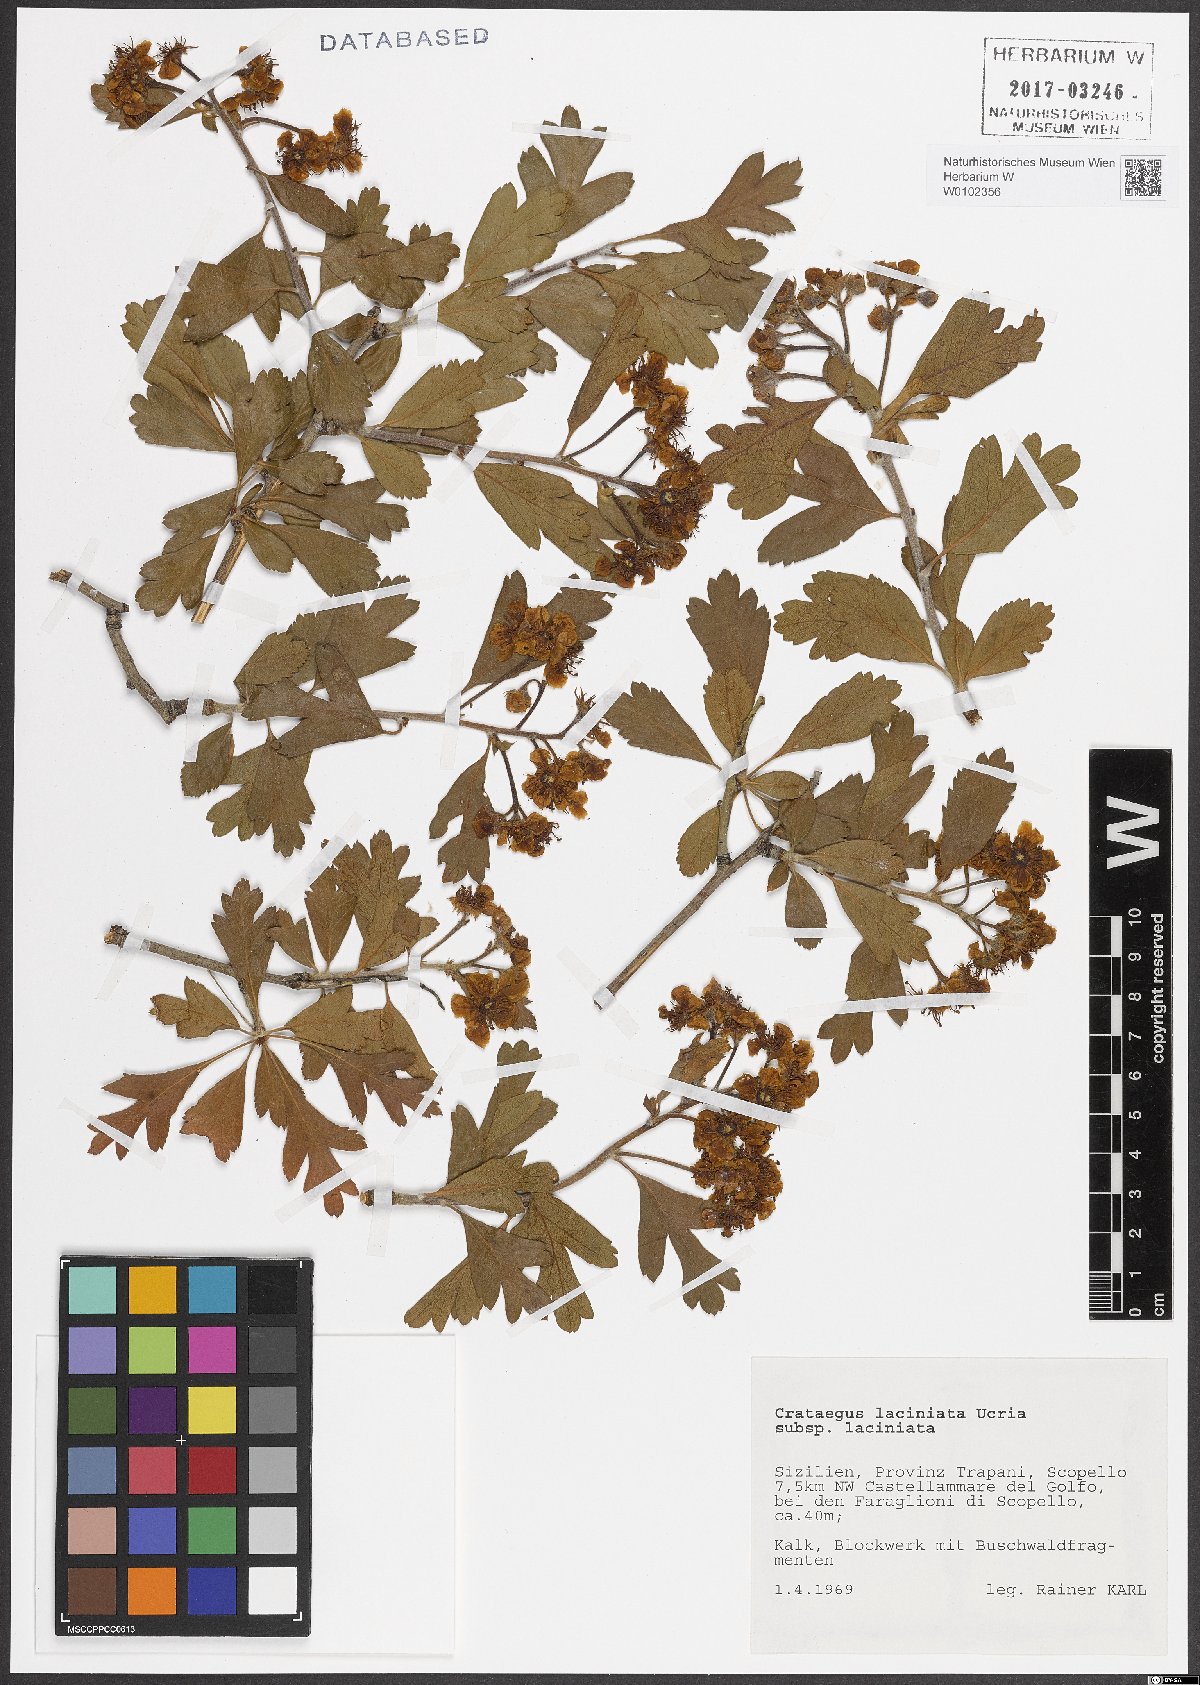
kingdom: Plantae
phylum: Tracheophyta
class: Magnoliopsida
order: Rosales
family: Rosaceae
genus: Crataegus
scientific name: Crataegus laciniata
